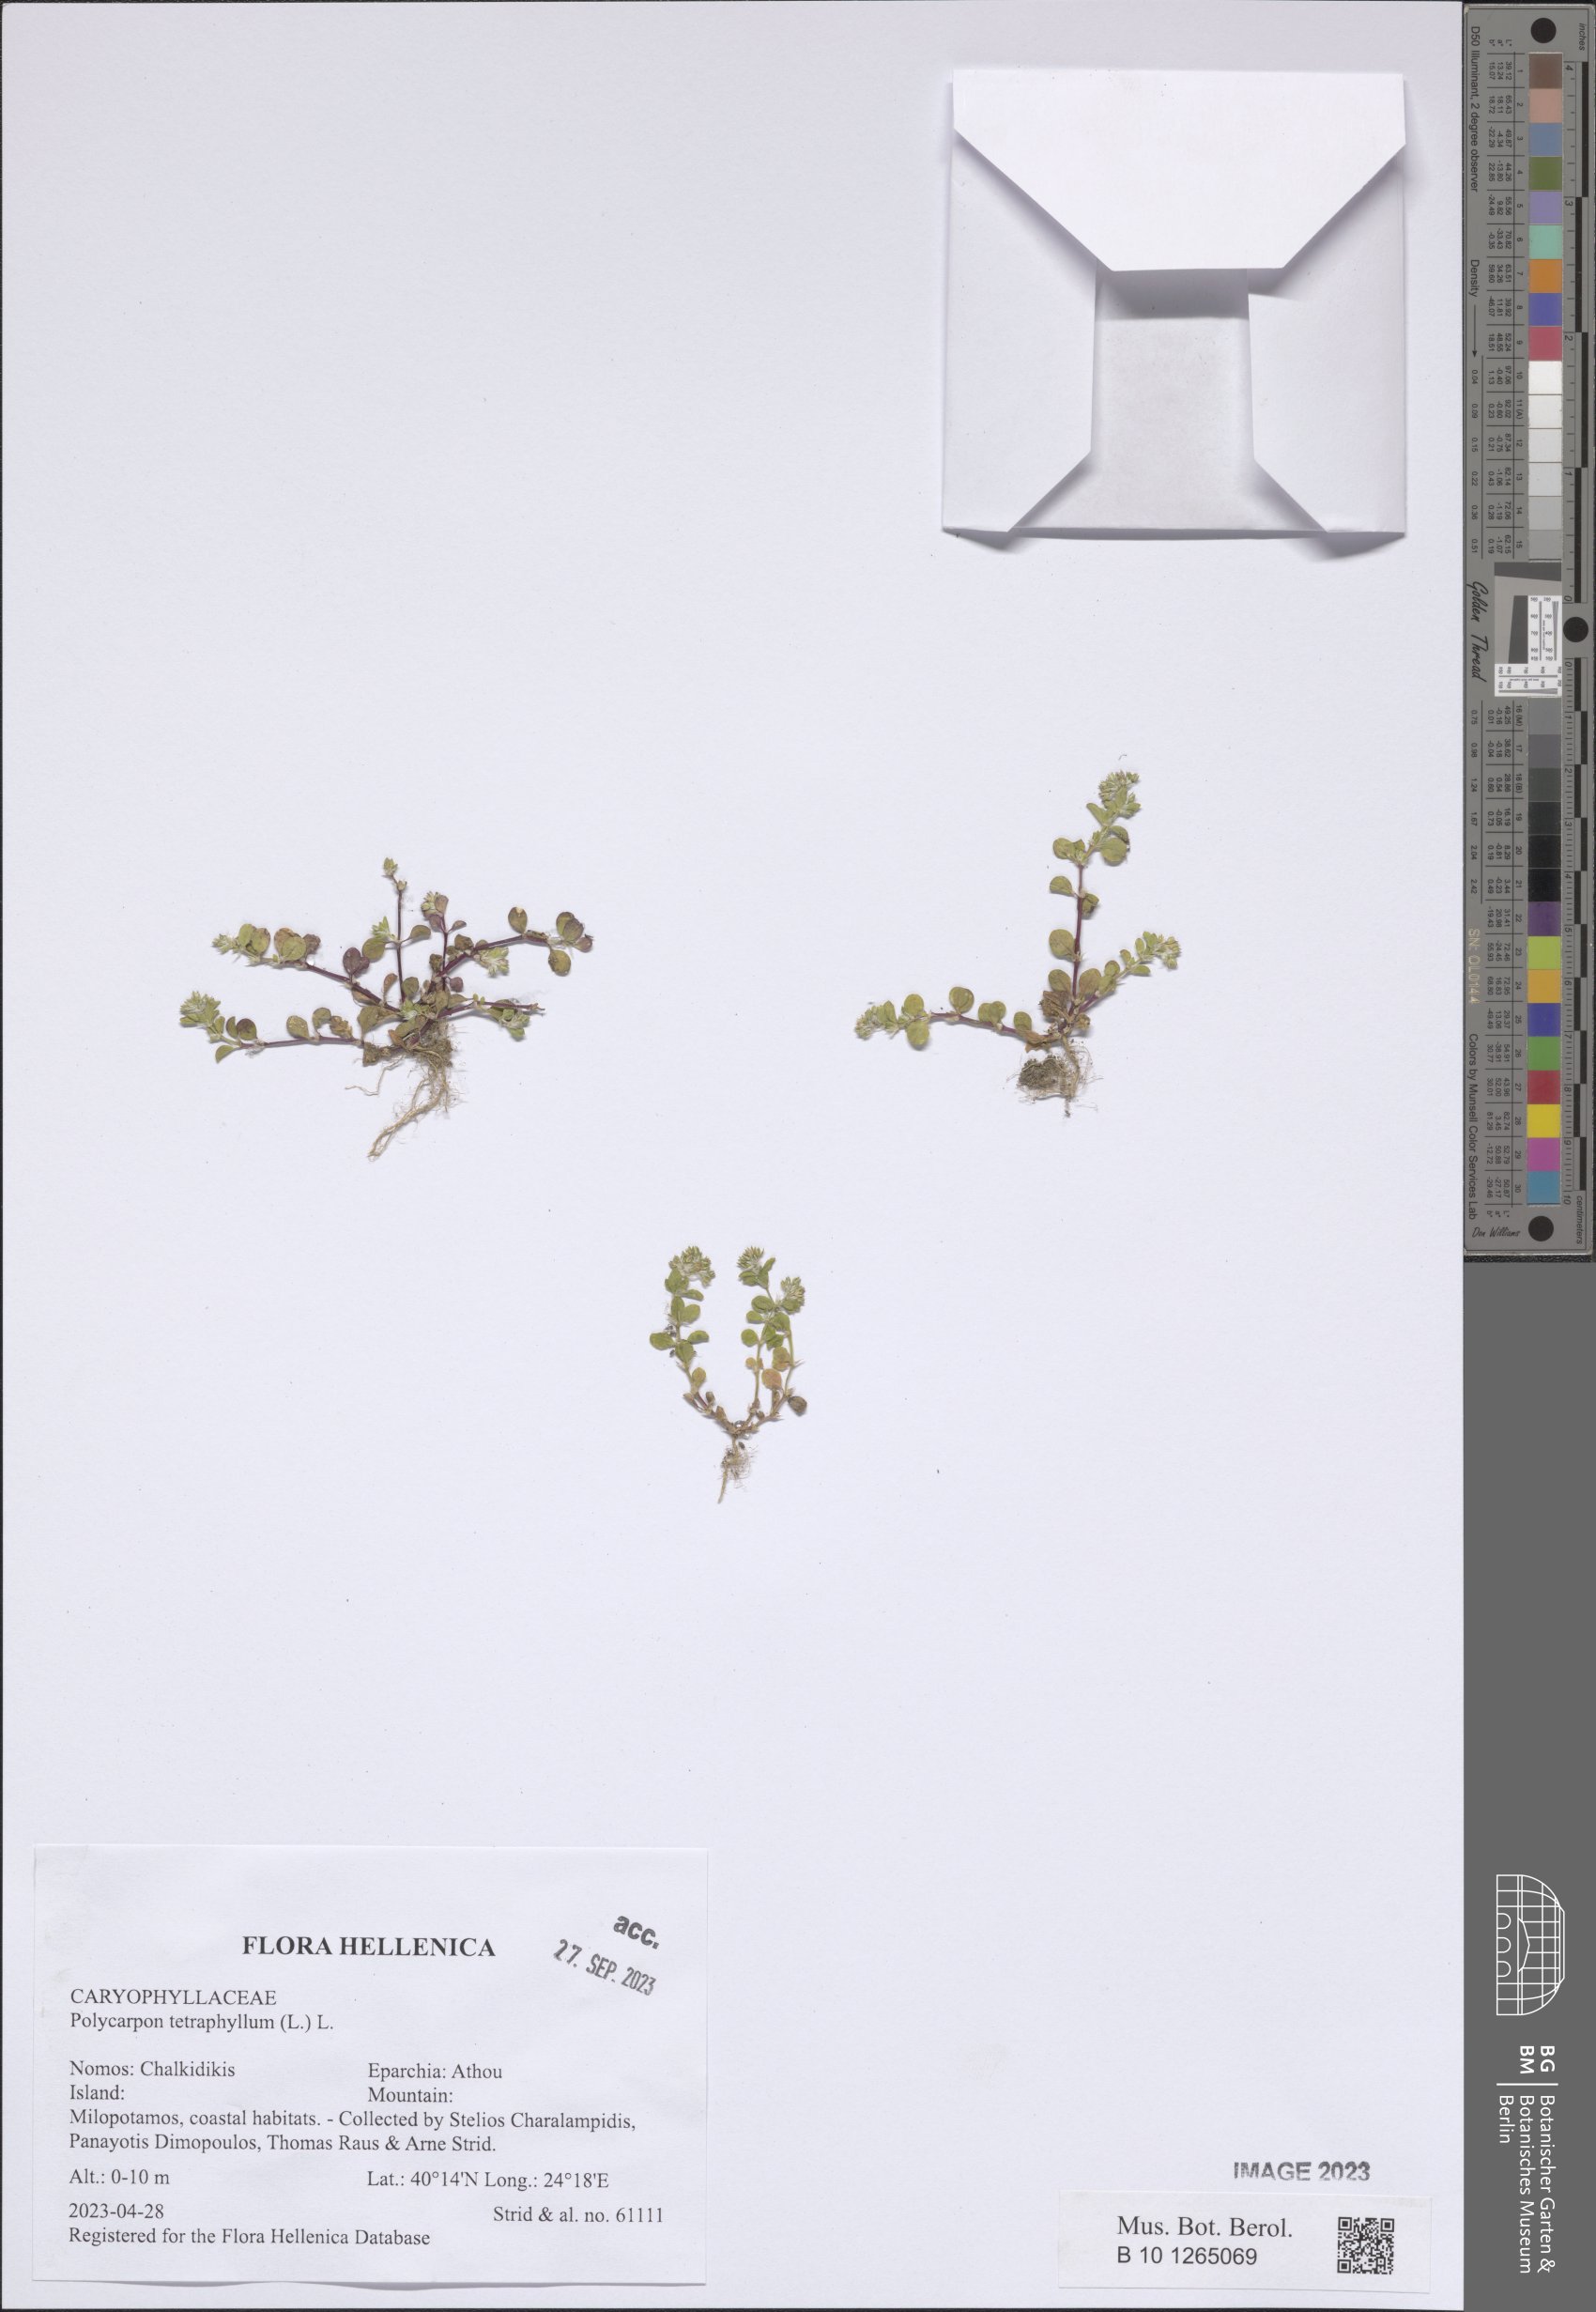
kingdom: Plantae
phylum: Tracheophyta
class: Magnoliopsida
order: Caryophyllales
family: Caryophyllaceae
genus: Polycarpon
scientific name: Polycarpon tetraphyllum
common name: Four-leaved all-seed
